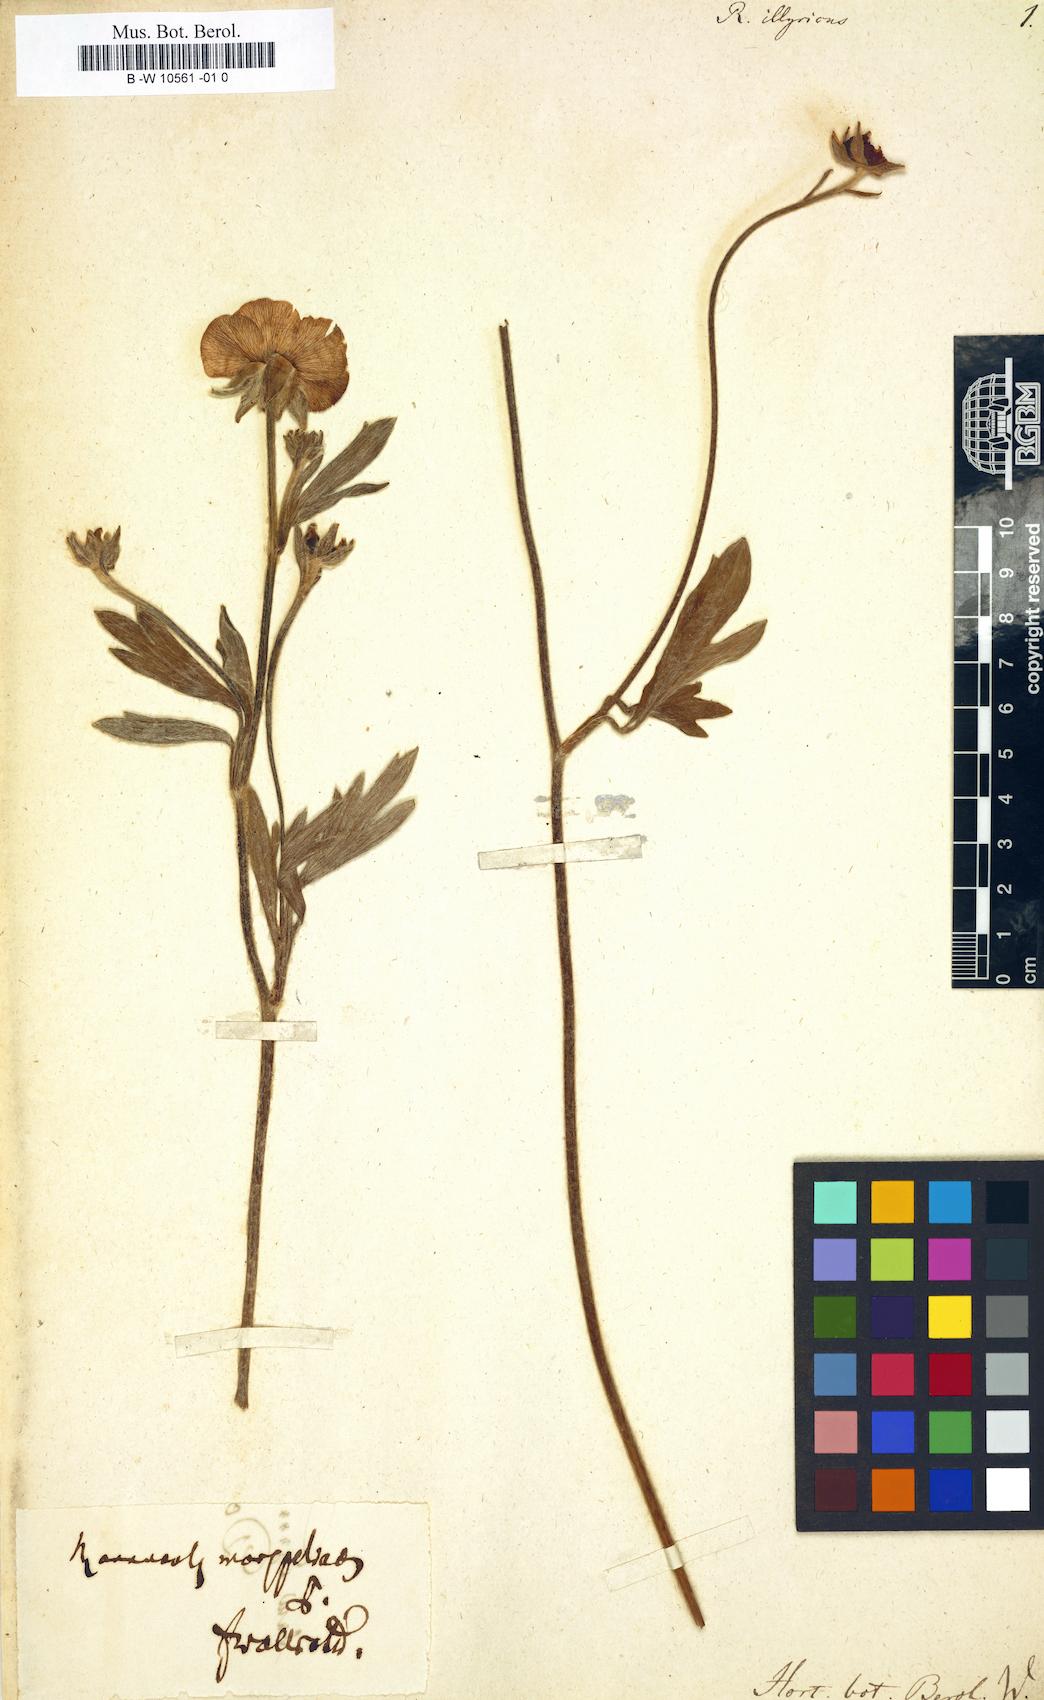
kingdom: Plantae
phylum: Tracheophyta
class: Magnoliopsida
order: Ranunculales
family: Ranunculaceae
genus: Ranunculus
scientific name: Ranunculus illyricus
